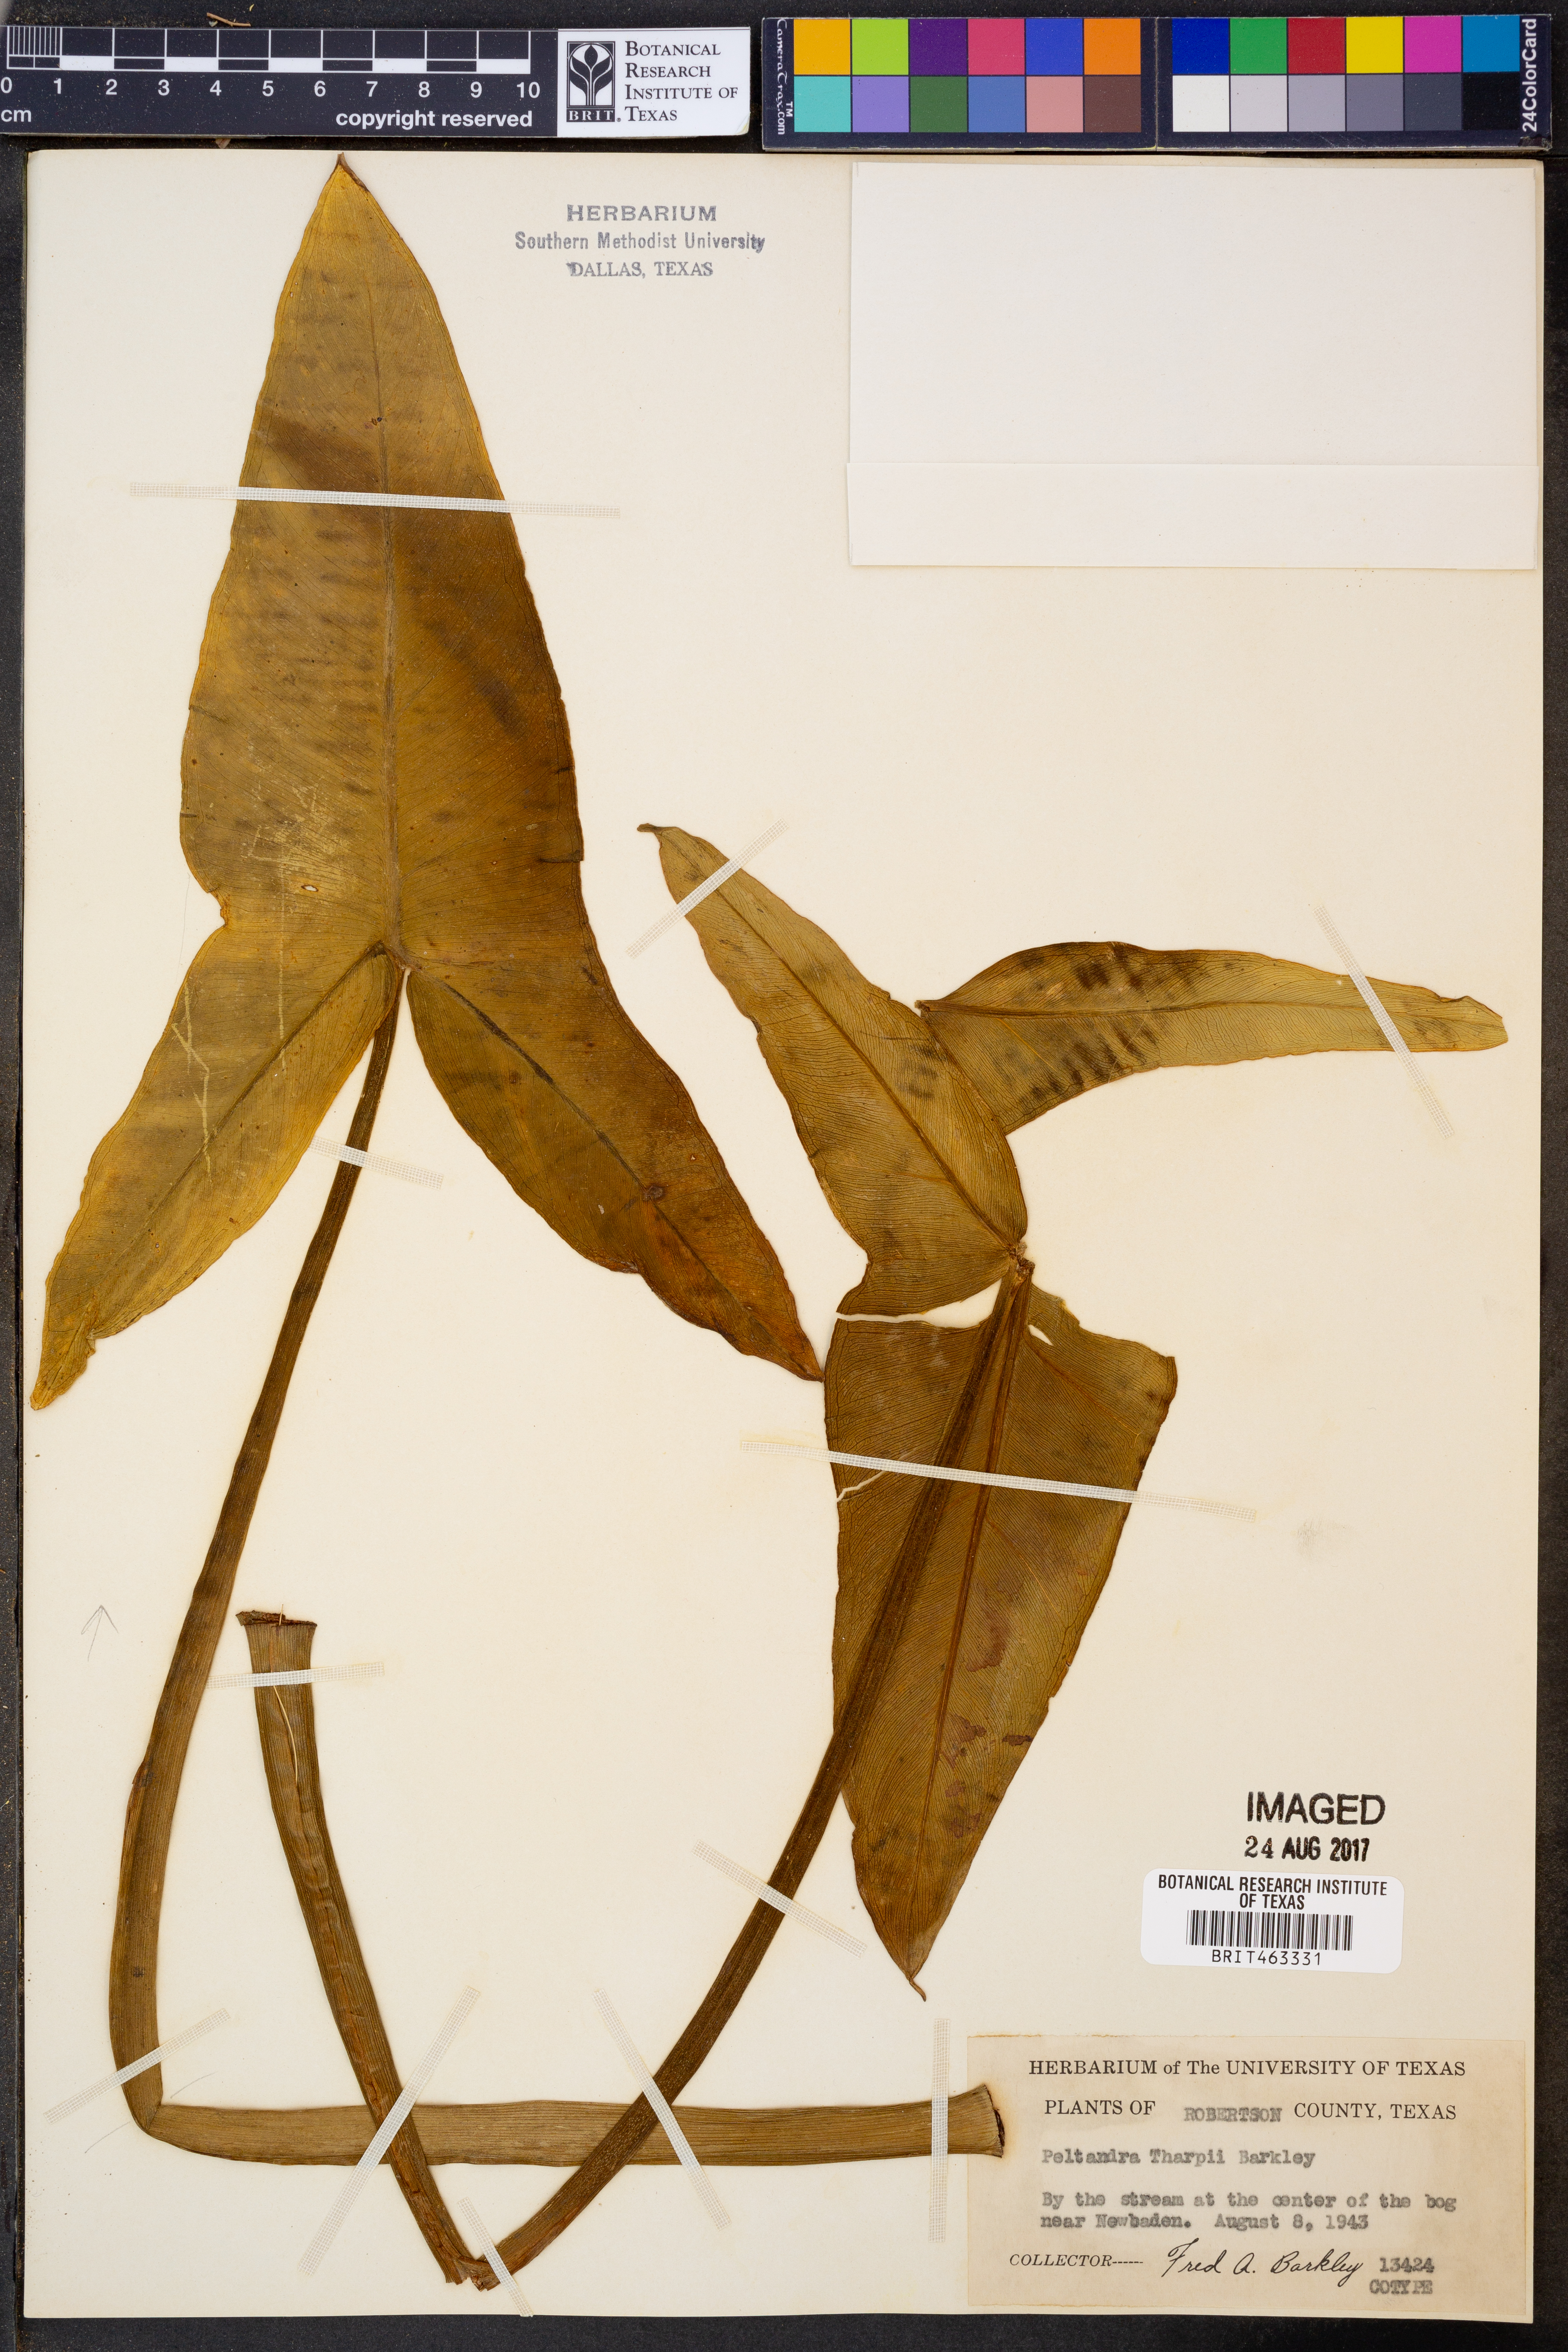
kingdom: Plantae
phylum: Tracheophyta
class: Liliopsida
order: Alismatales
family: Araceae
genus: Peltandra
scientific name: Peltandra virginica
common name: Arrow arum
